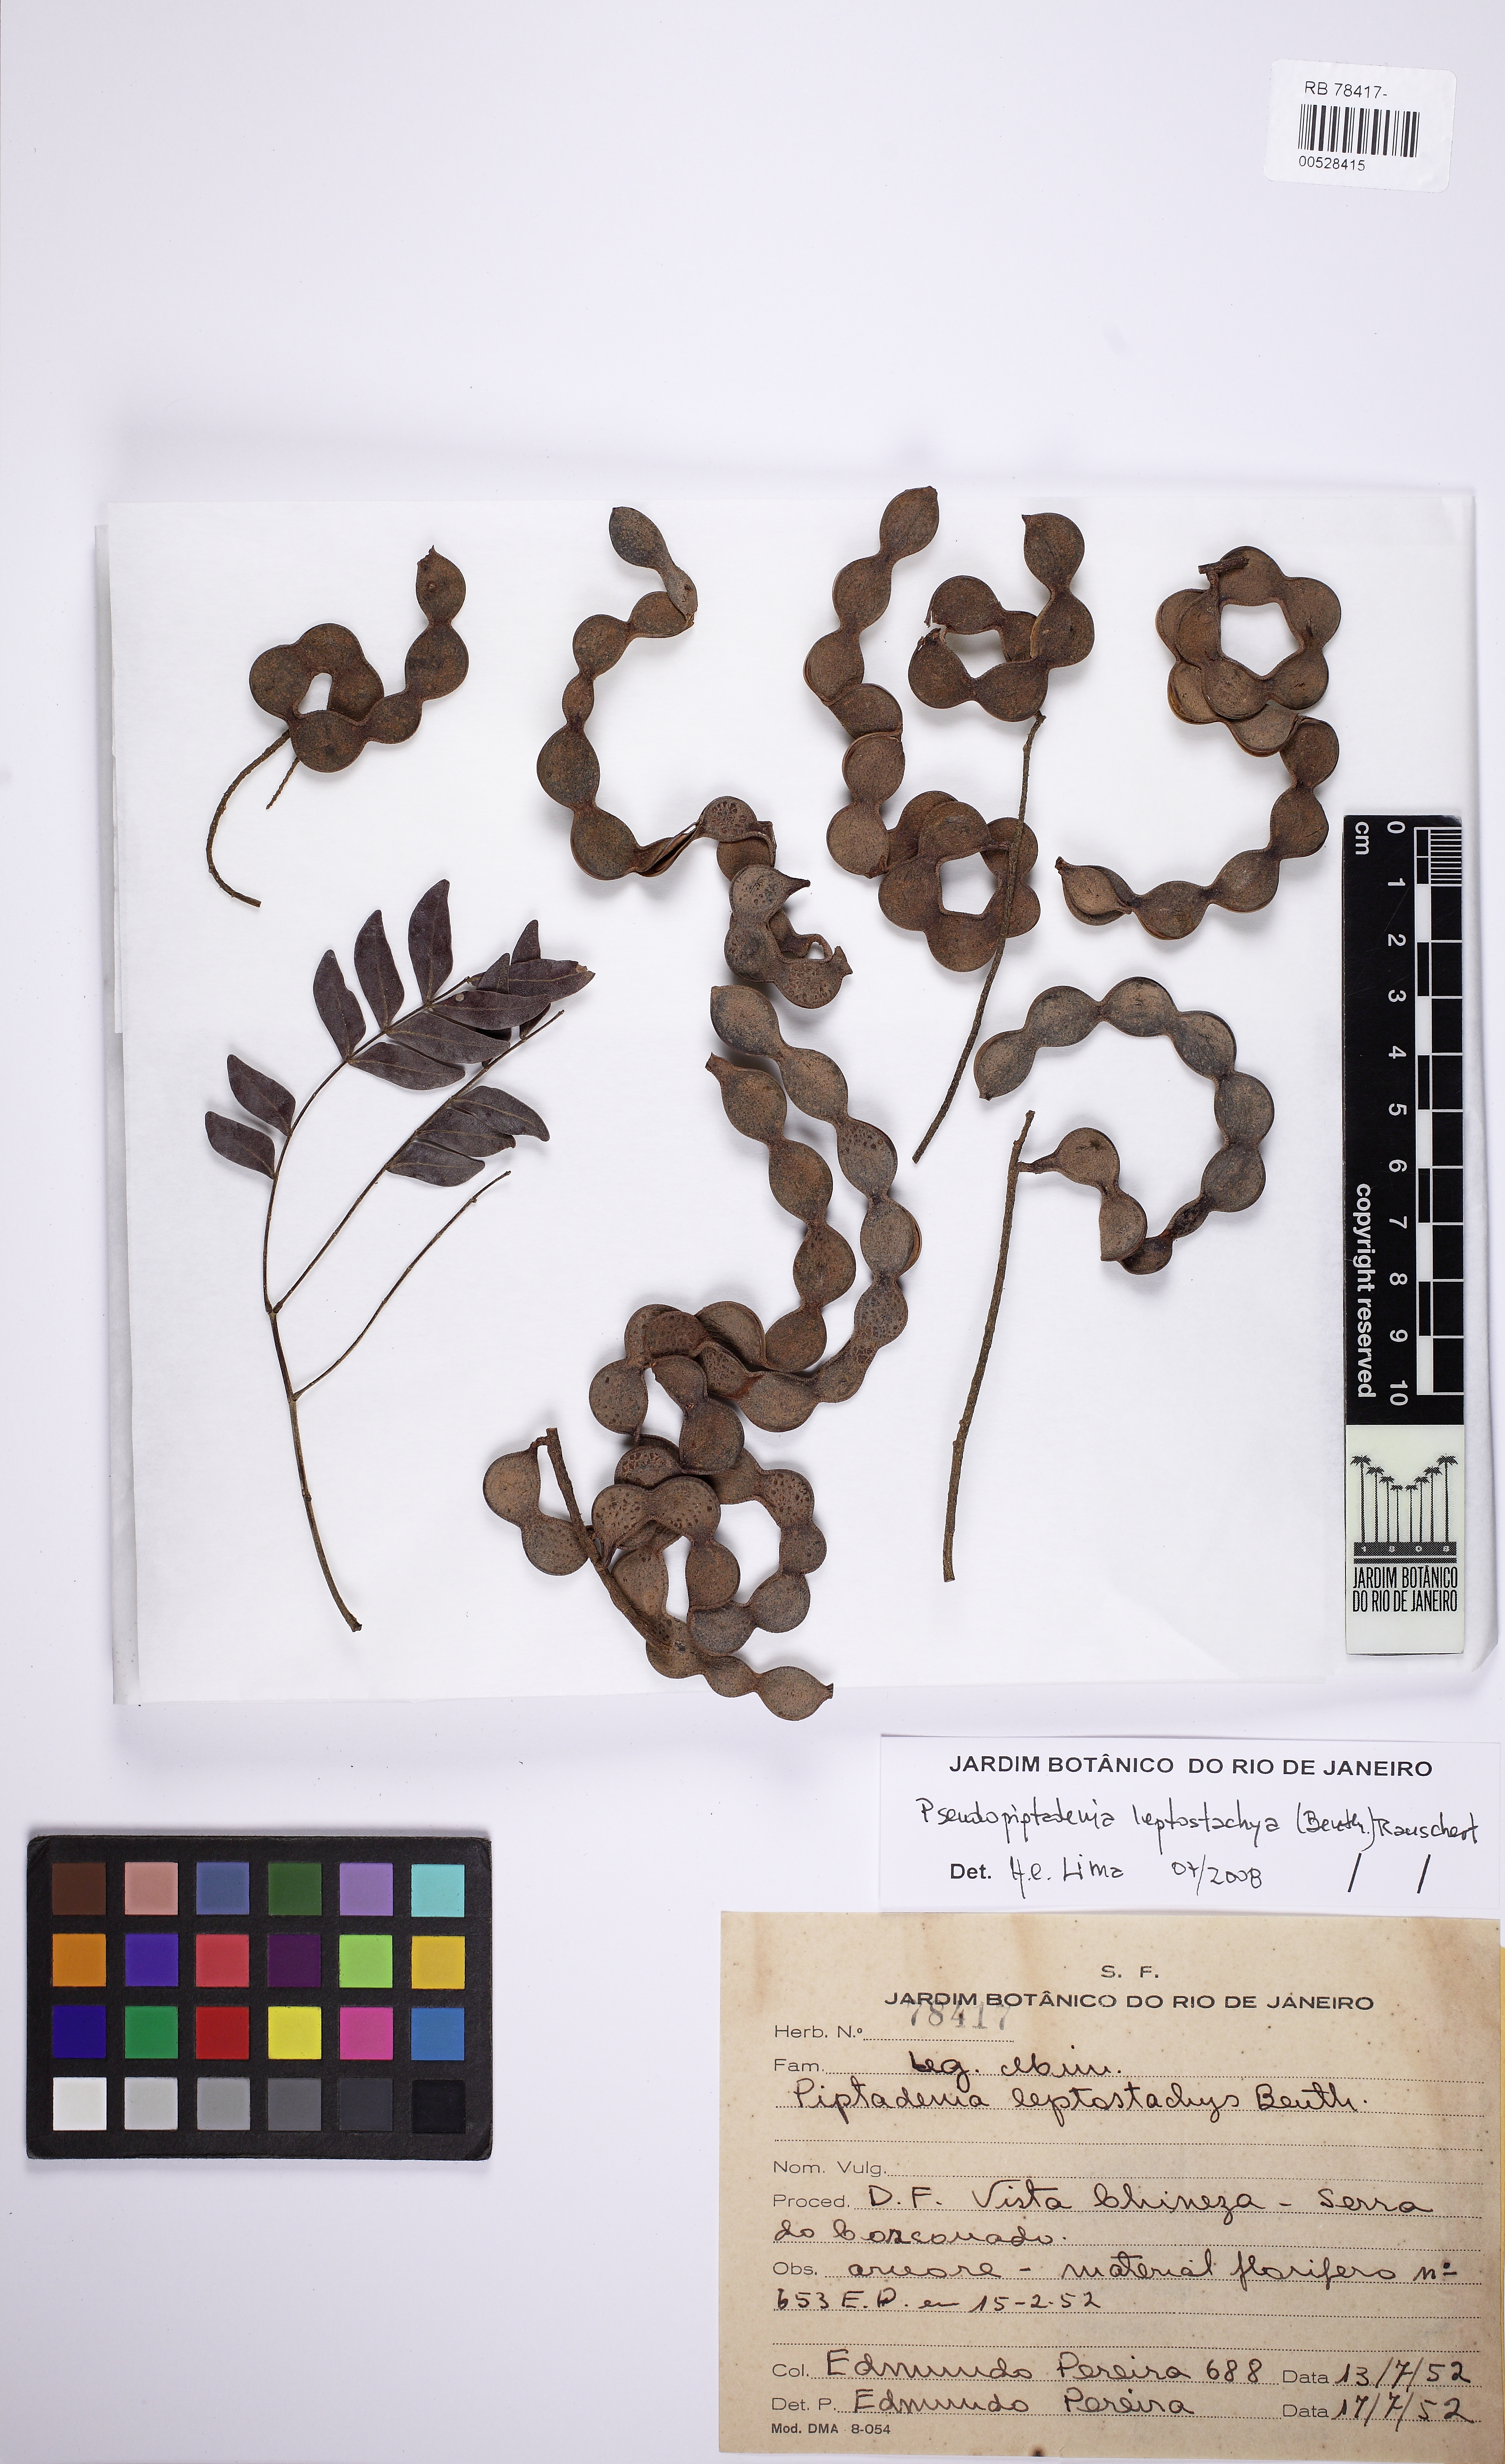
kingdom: Plantae
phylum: Tracheophyta
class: Magnoliopsida
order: Fabales
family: Fabaceae
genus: Pseudopiptadenia
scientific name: Pseudopiptadenia leptostachya
